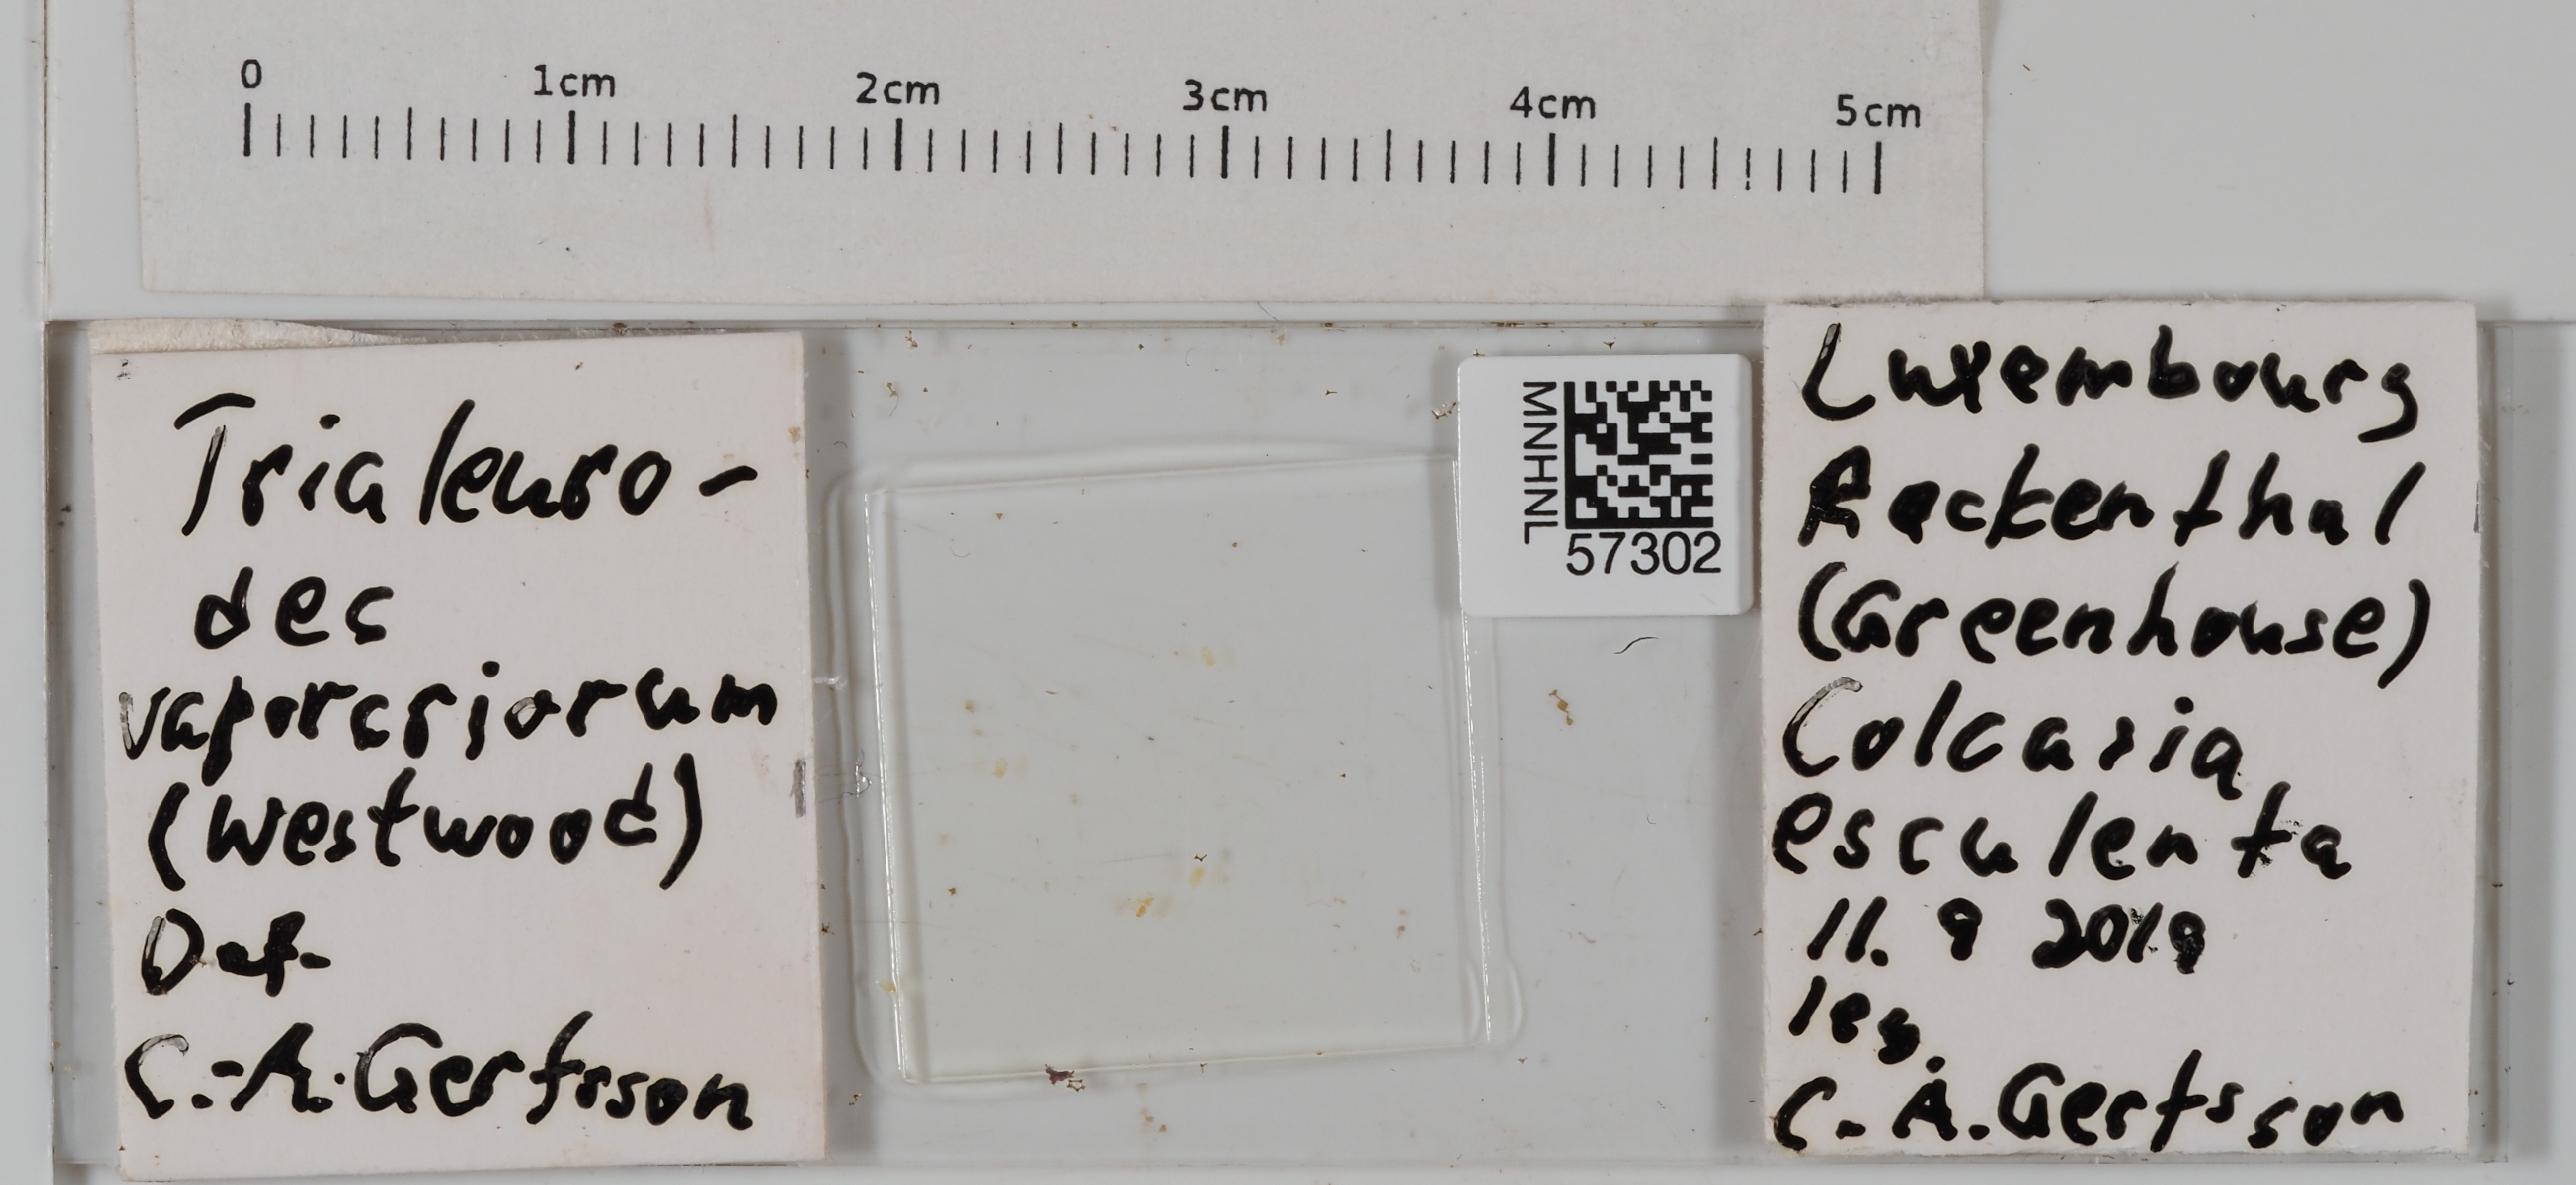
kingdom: Animalia
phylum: Arthropoda
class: Insecta
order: Hemiptera
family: Aleyrodidae
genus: Trialeurodes
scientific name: Trialeurodes vaporariorum
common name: Greenhouse white fly
